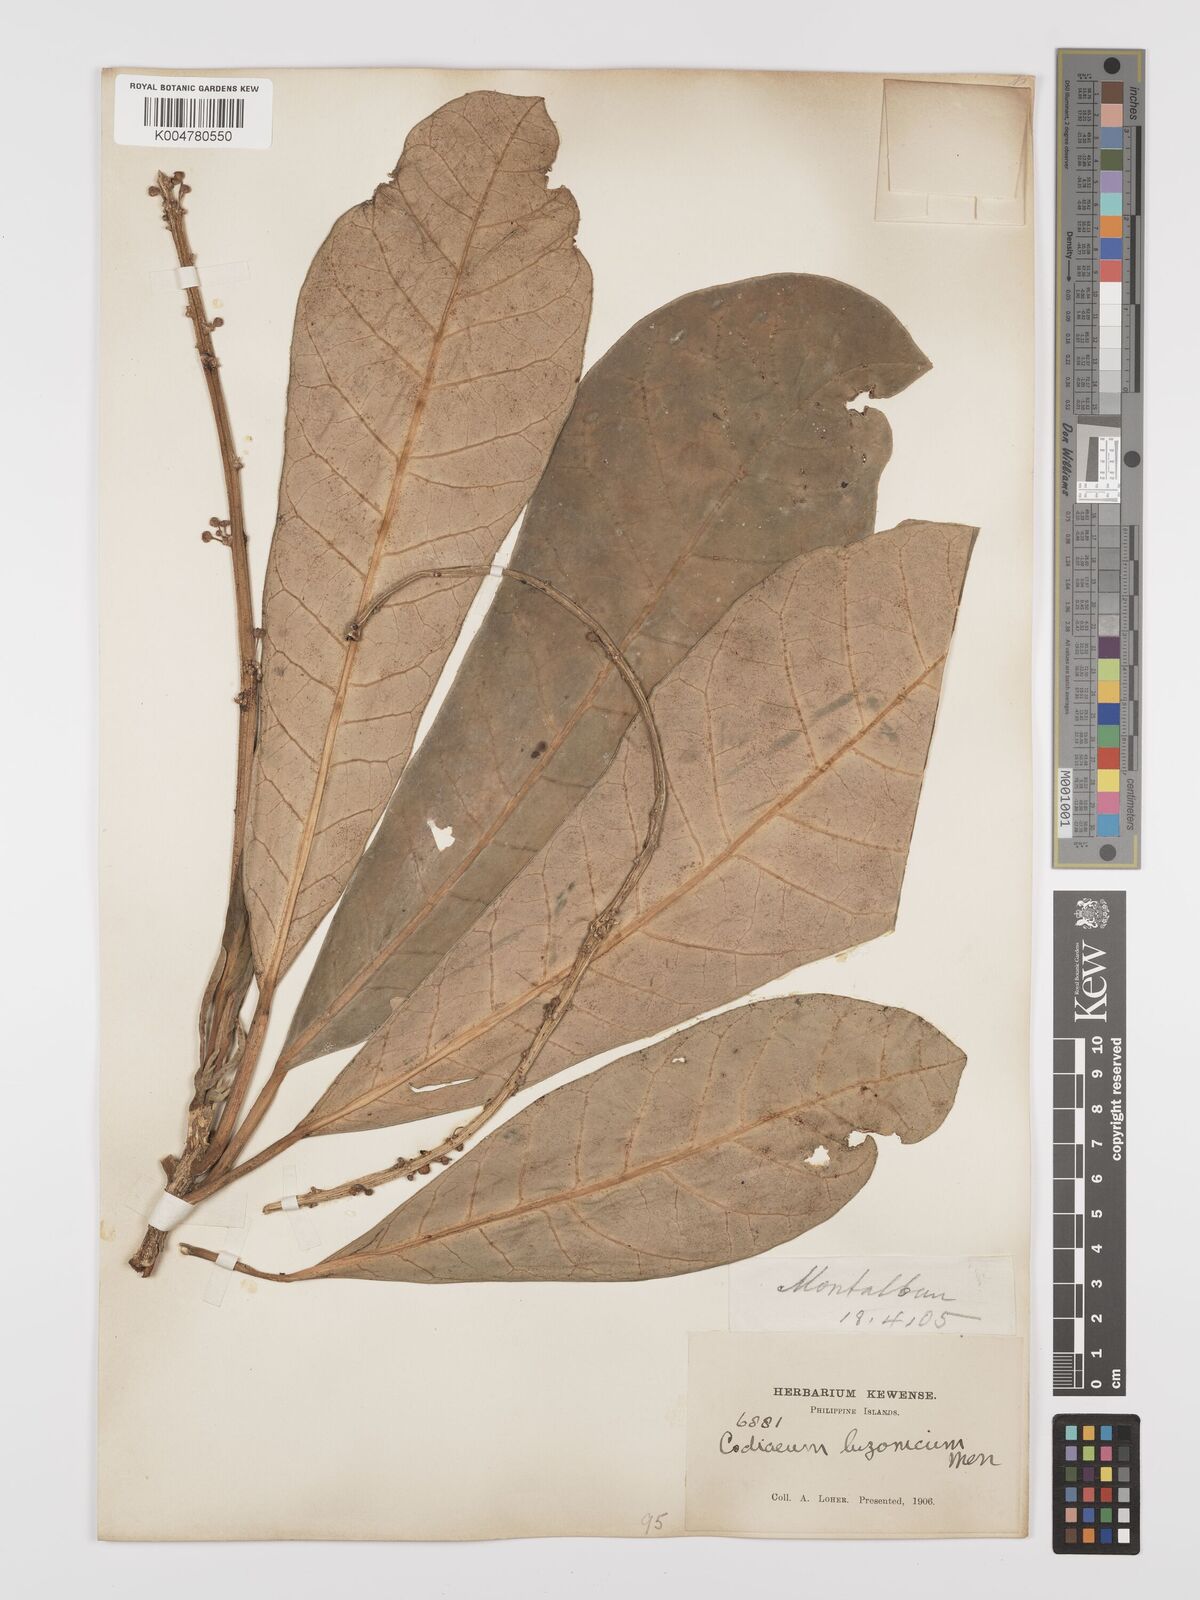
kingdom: Plantae
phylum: Tracheophyta
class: Magnoliopsida
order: Malpighiales
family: Euphorbiaceae
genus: Codiaeum
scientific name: Codiaeum luzonicum
